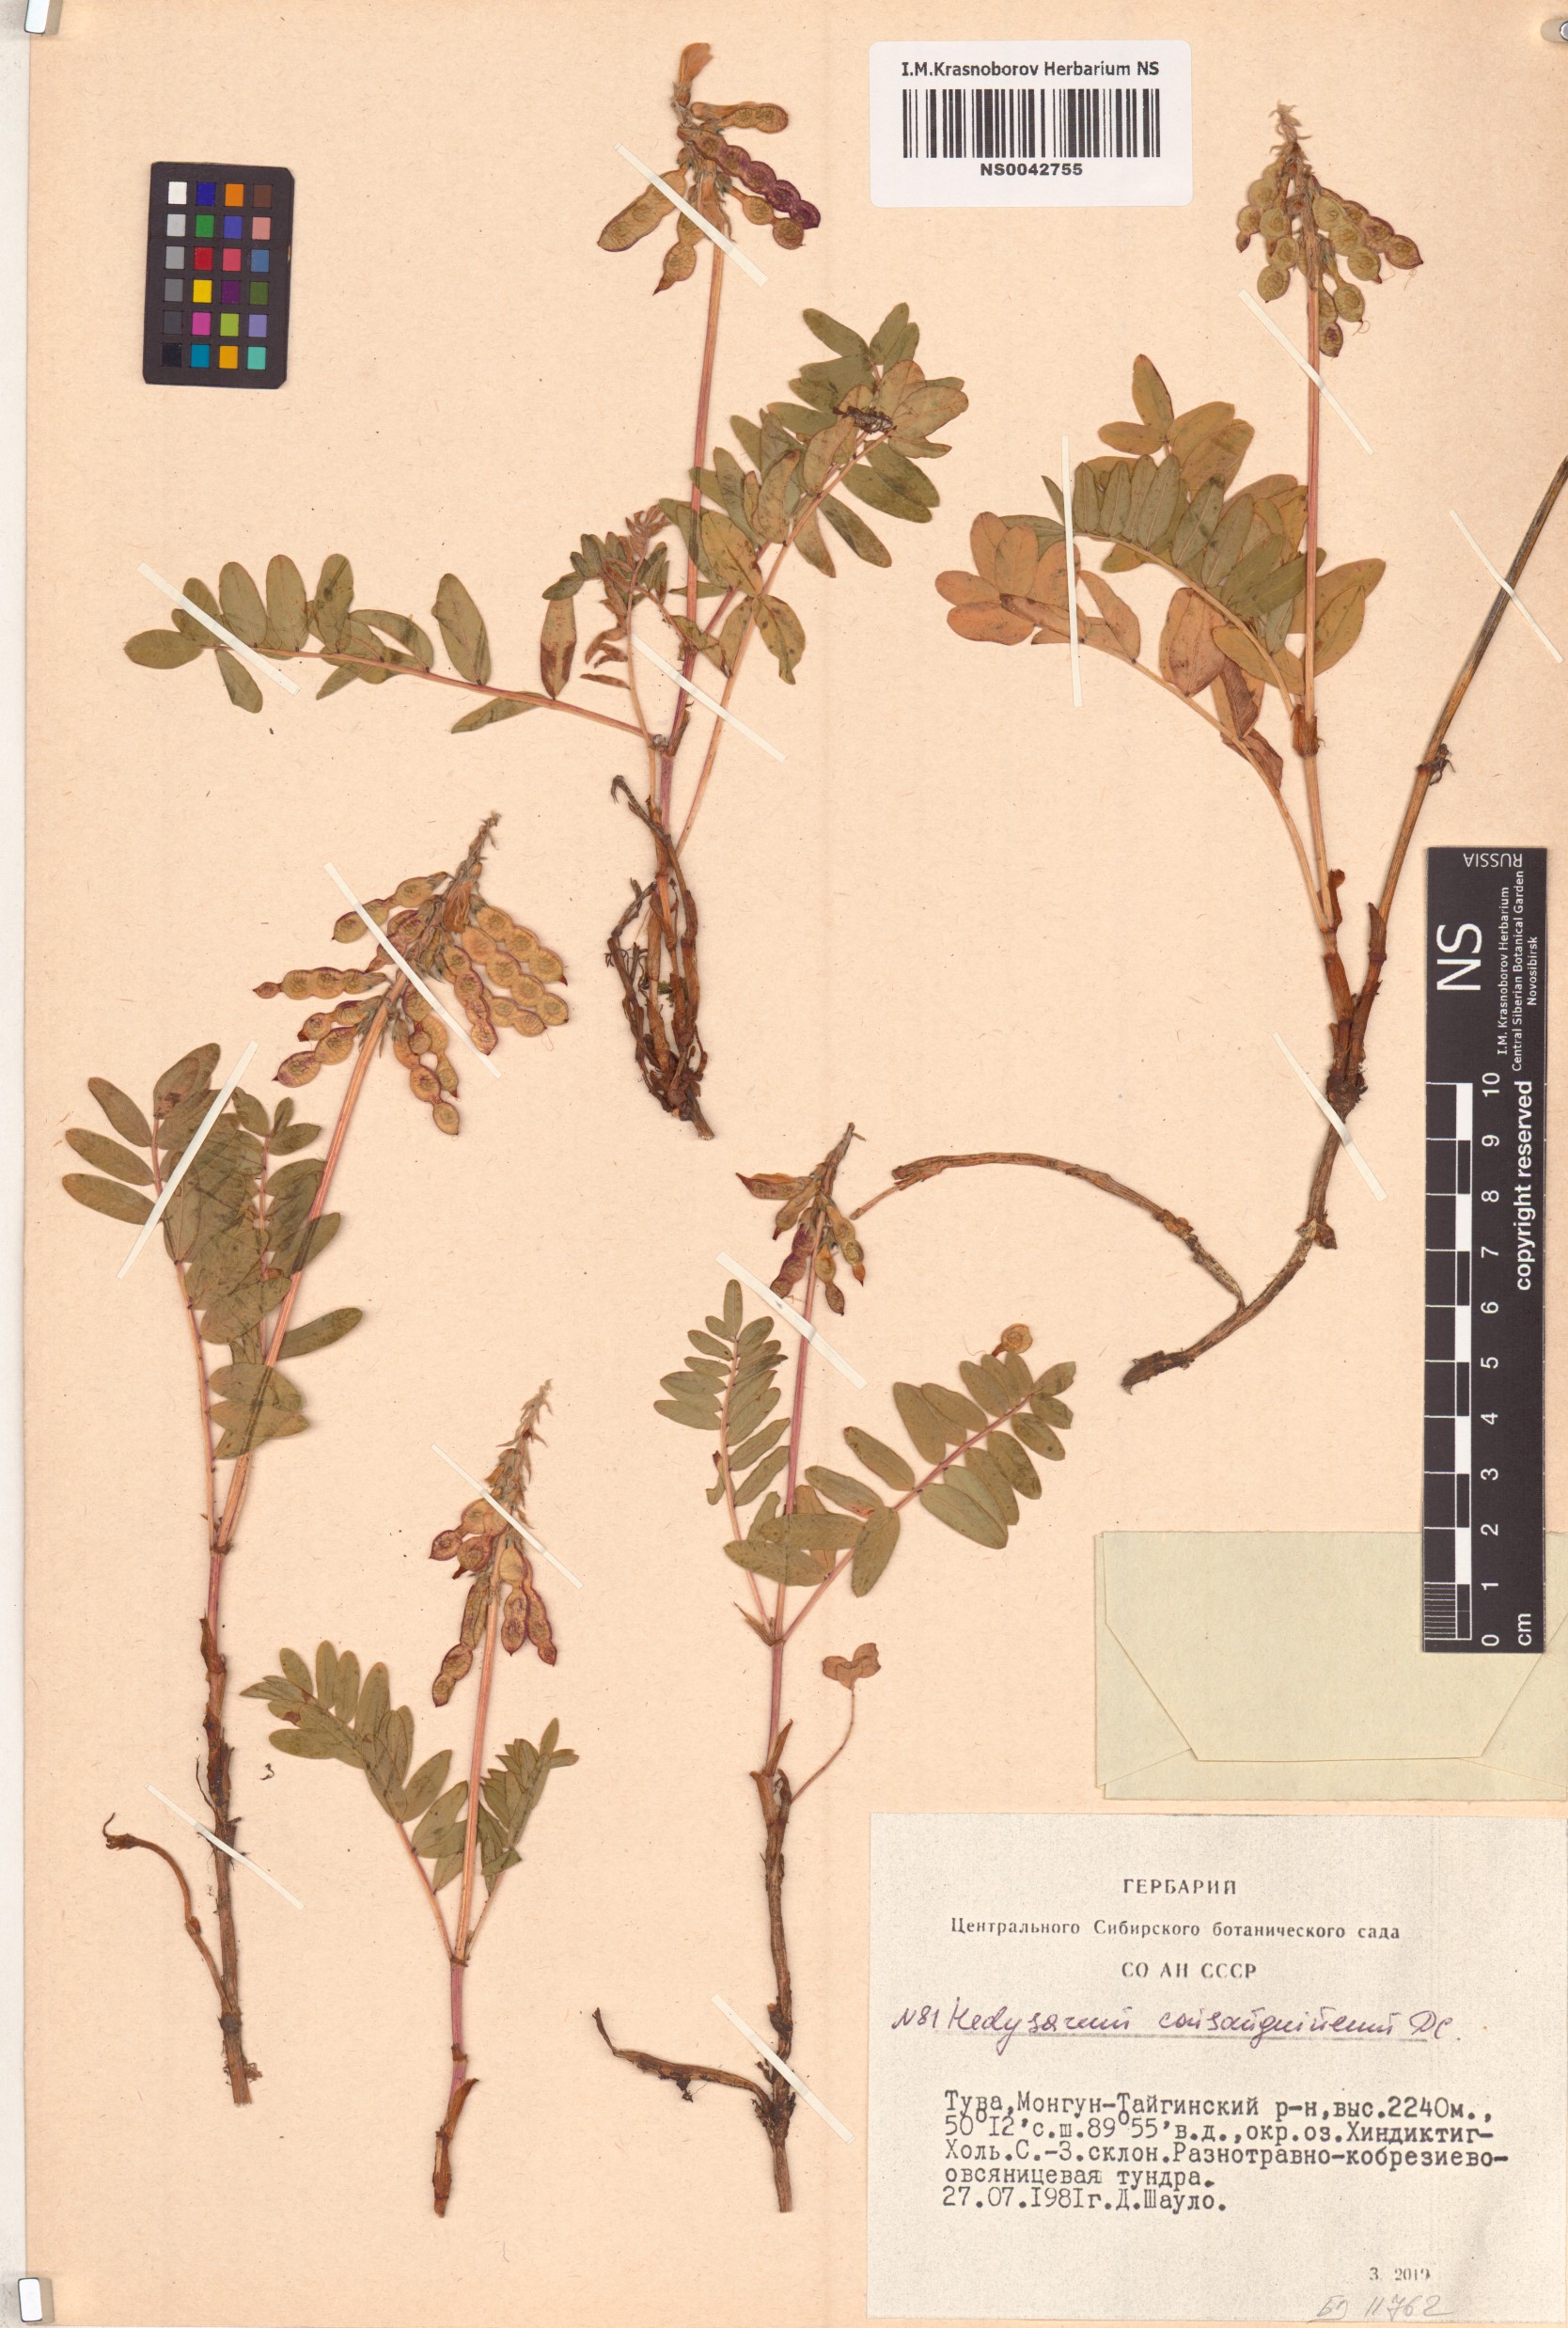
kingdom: Plantae
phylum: Tracheophyta
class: Magnoliopsida
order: Fabales
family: Fabaceae
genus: Hedysarum
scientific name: Hedysarum consanguineum
